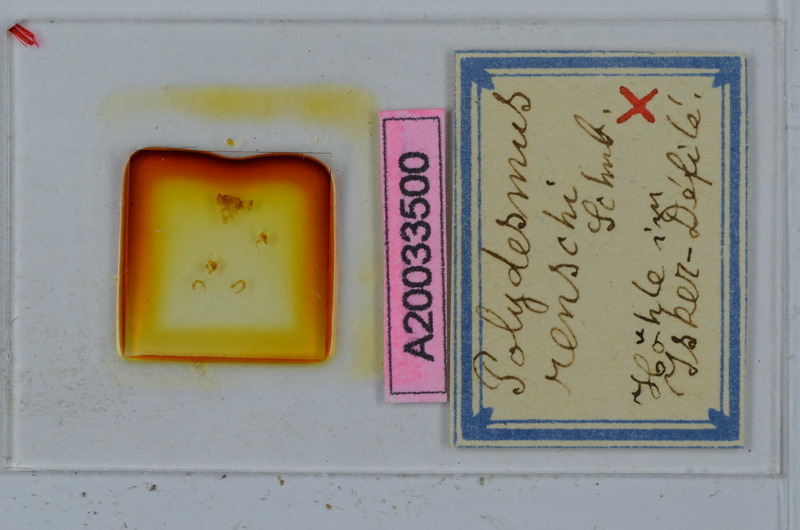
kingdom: Animalia
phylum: Arthropoda
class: Diplopoda
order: Polydesmida
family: Polydesmidae
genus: Polydesmus
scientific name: Polydesmus renschi
